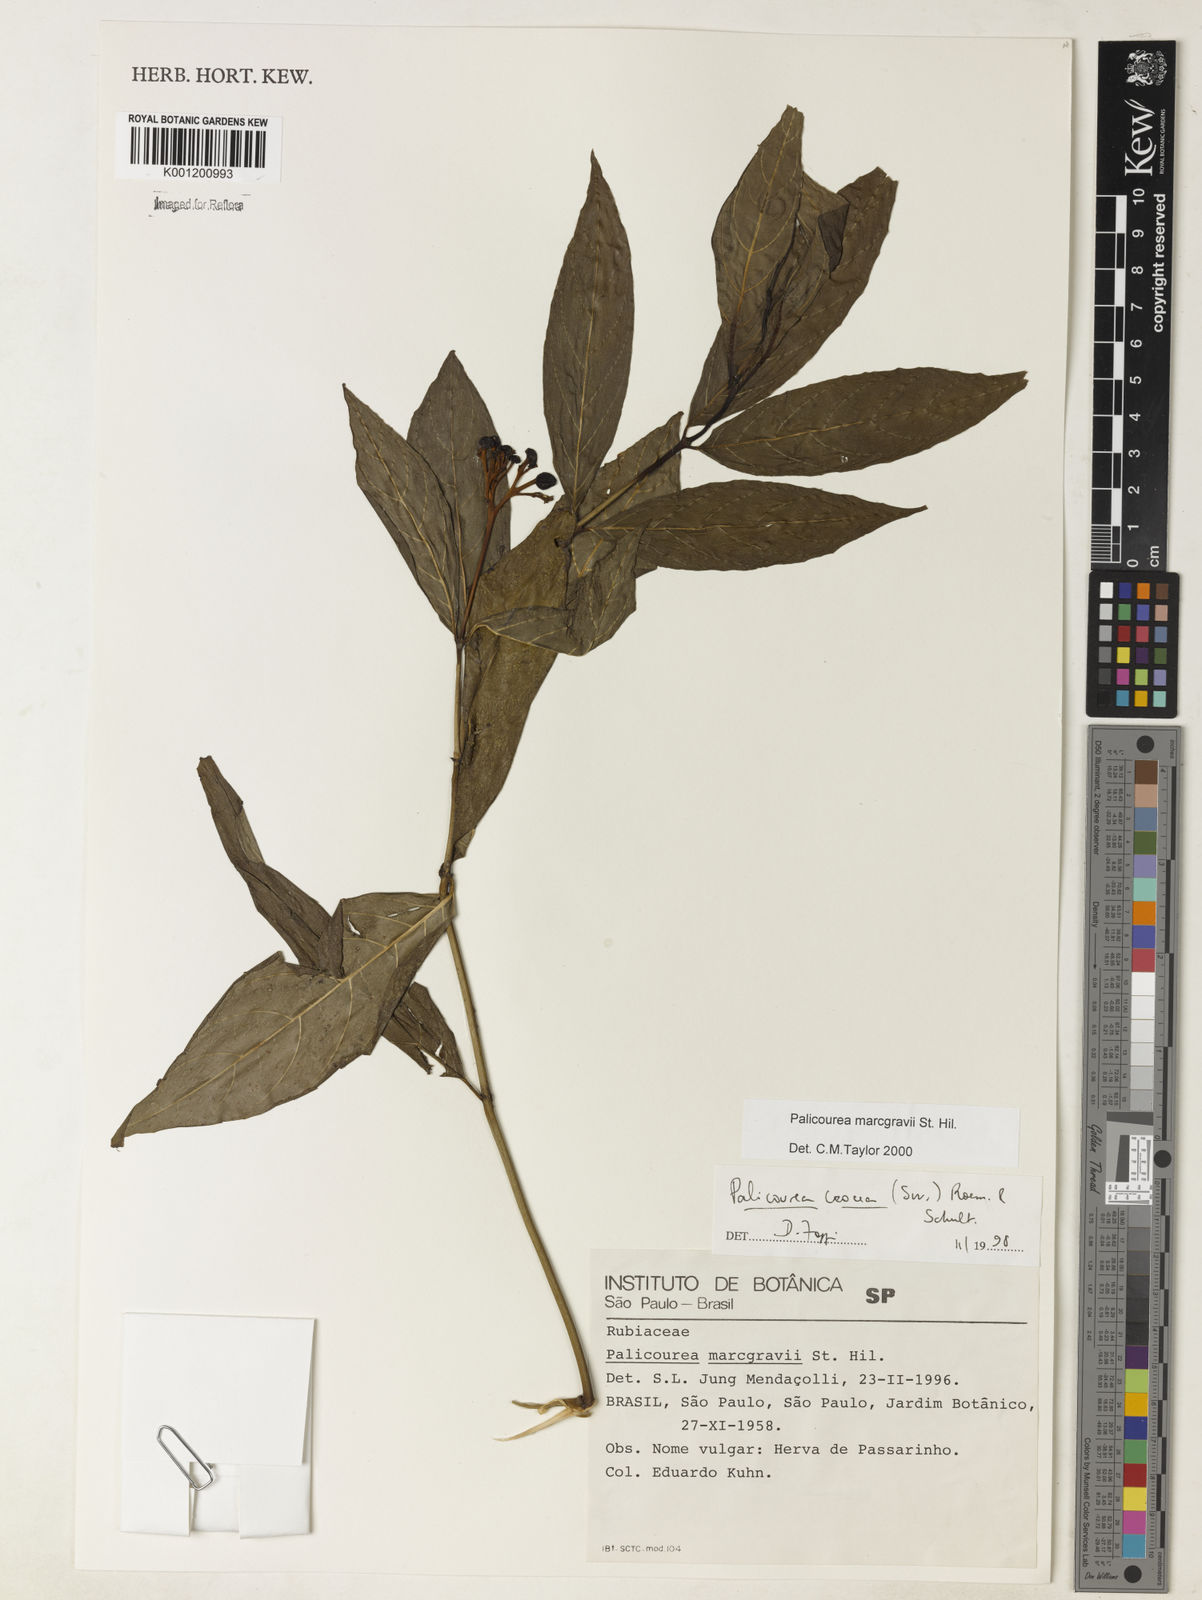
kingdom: Plantae
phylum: Tracheophyta
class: Magnoliopsida
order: Gentianales
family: Rubiaceae
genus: Palicourea
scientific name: Palicourea marcgravii
